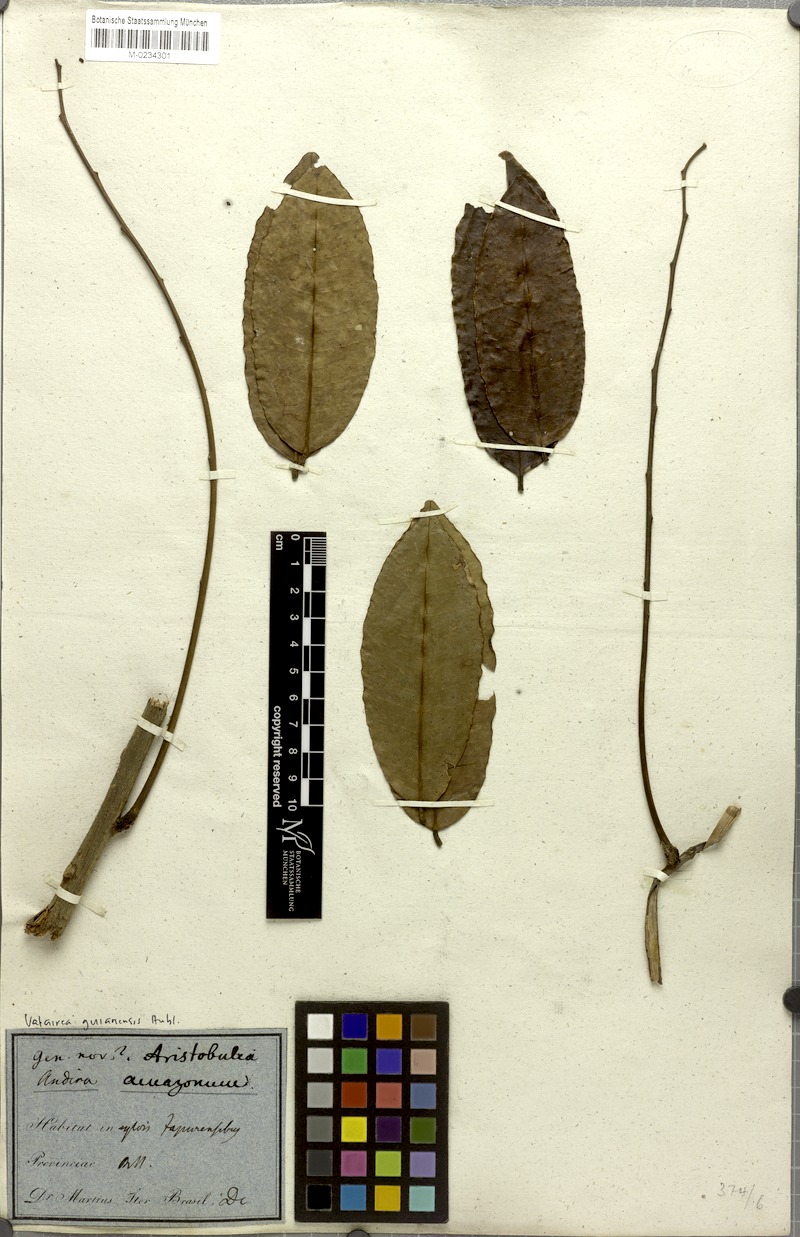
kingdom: Plantae
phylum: Tracheophyta
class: Magnoliopsida
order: Fabales
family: Fabaceae
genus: Vatairea
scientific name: Vatairea guianensis
